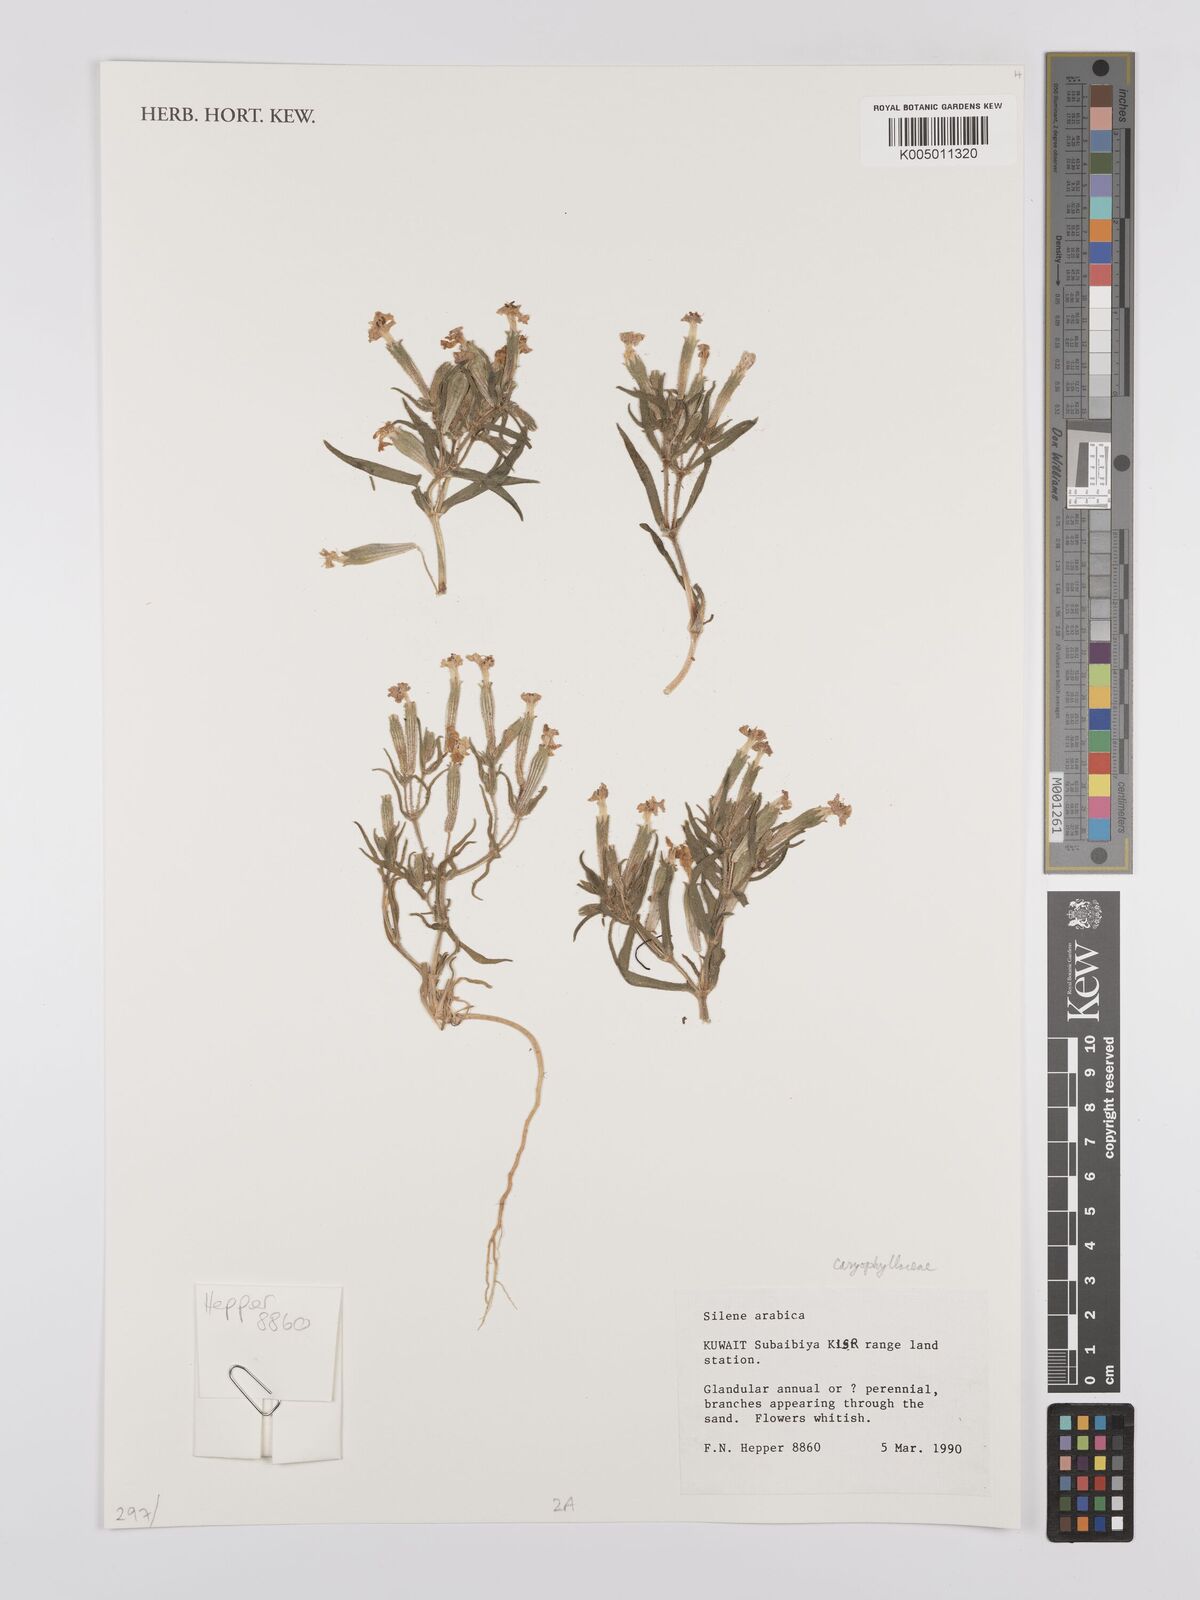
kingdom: Plantae
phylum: Tracheophyta
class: Magnoliopsida
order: Caryophyllales
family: Caryophyllaceae
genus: Silene
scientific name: Silene arabica
